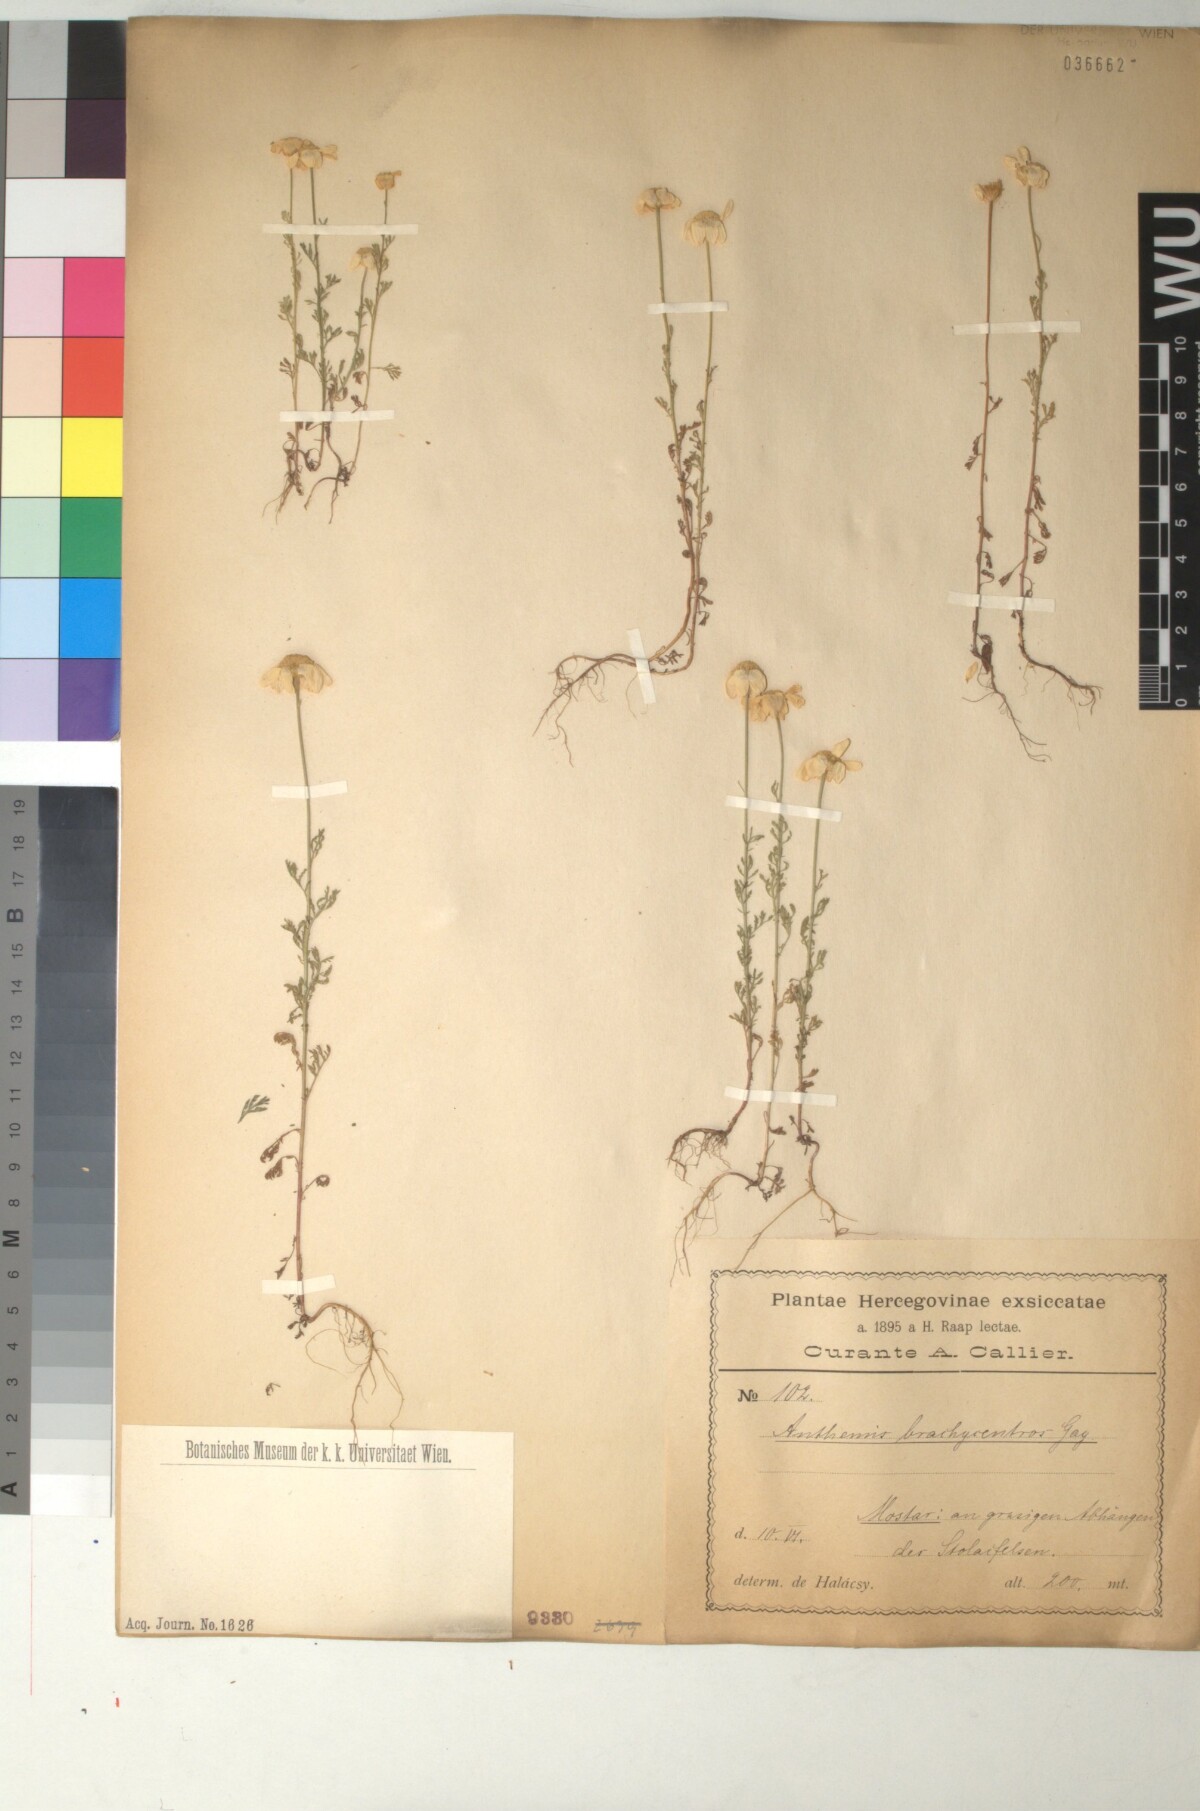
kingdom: Plantae
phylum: Tracheophyta
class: Magnoliopsida
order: Asterales
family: Asteraceae
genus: Cota
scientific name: Cota segetalis
